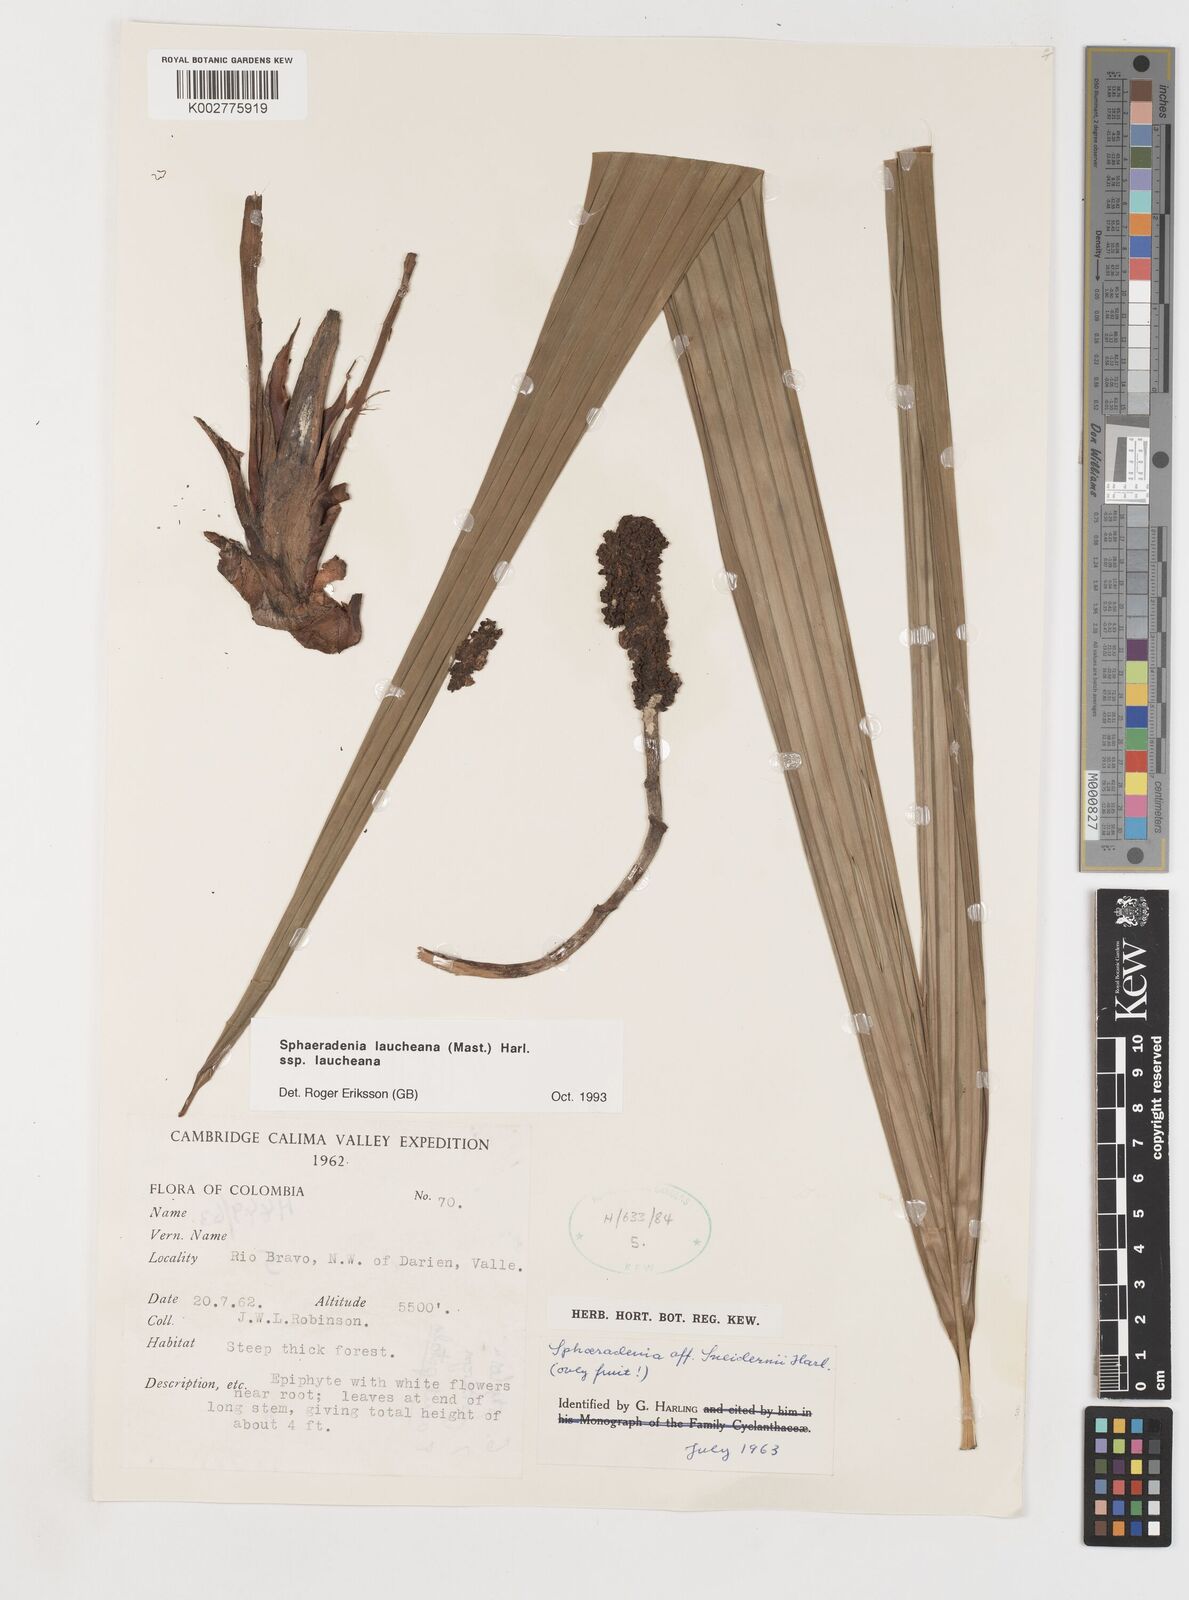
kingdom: Plantae
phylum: Tracheophyta
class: Liliopsida
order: Pandanales
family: Cyclanthaceae
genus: Sphaeradenia
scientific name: Sphaeradenia laucheana
